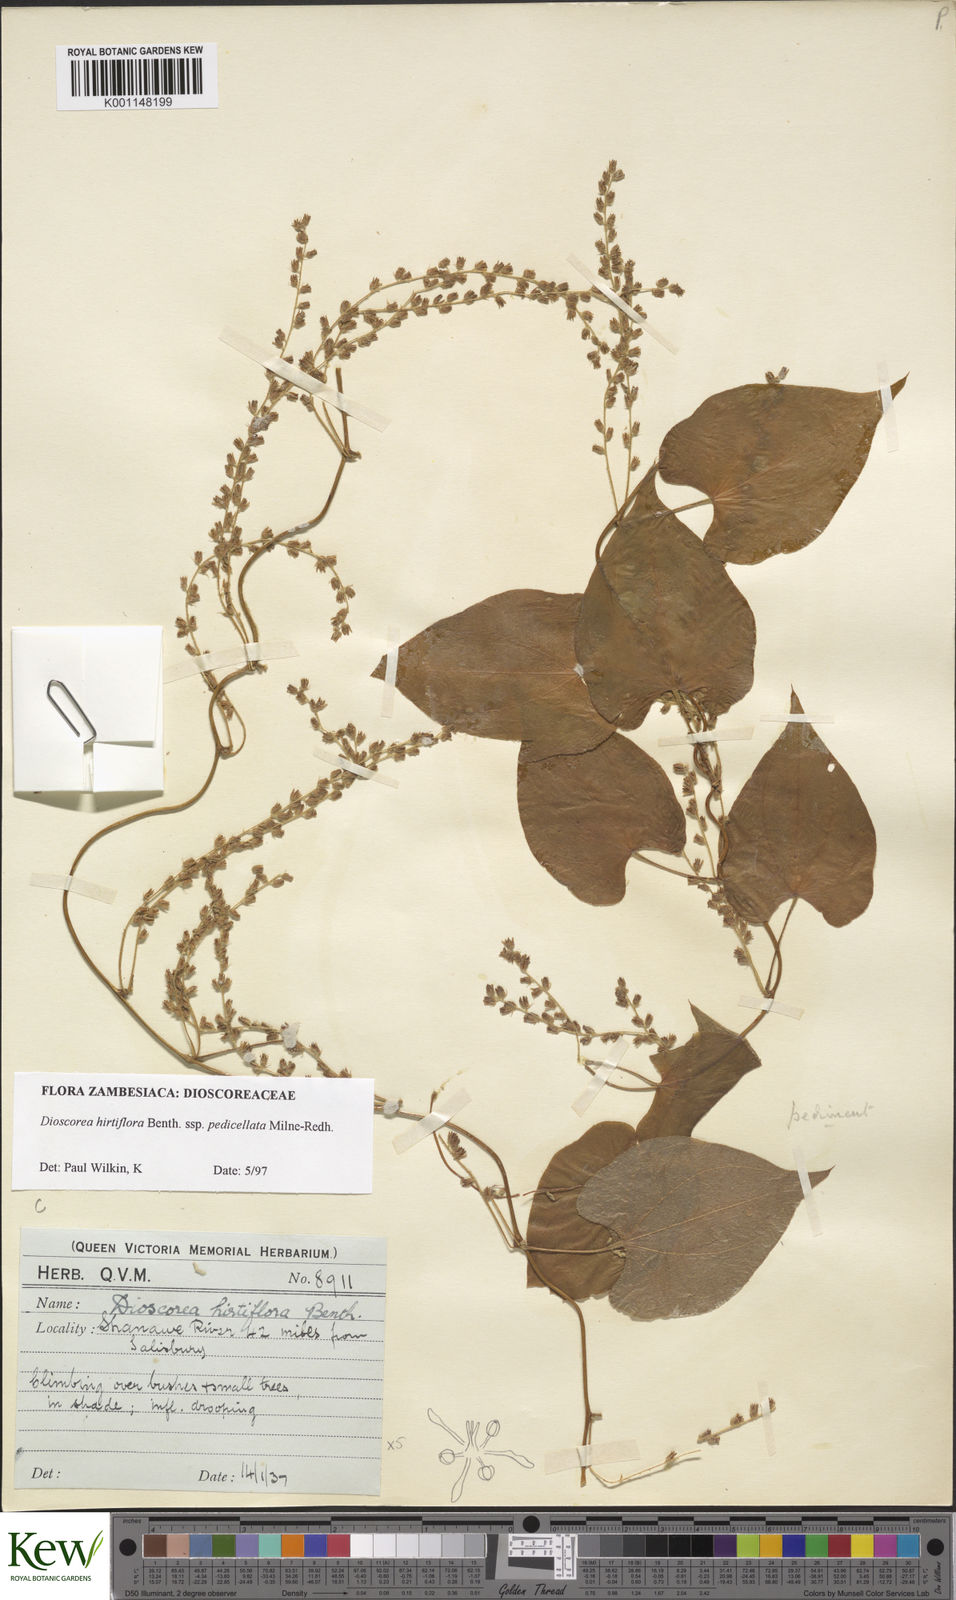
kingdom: Plantae
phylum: Tracheophyta
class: Liliopsida
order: Dioscoreales
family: Dioscoreaceae
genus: Dioscorea
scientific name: Dioscorea hirtiflora
